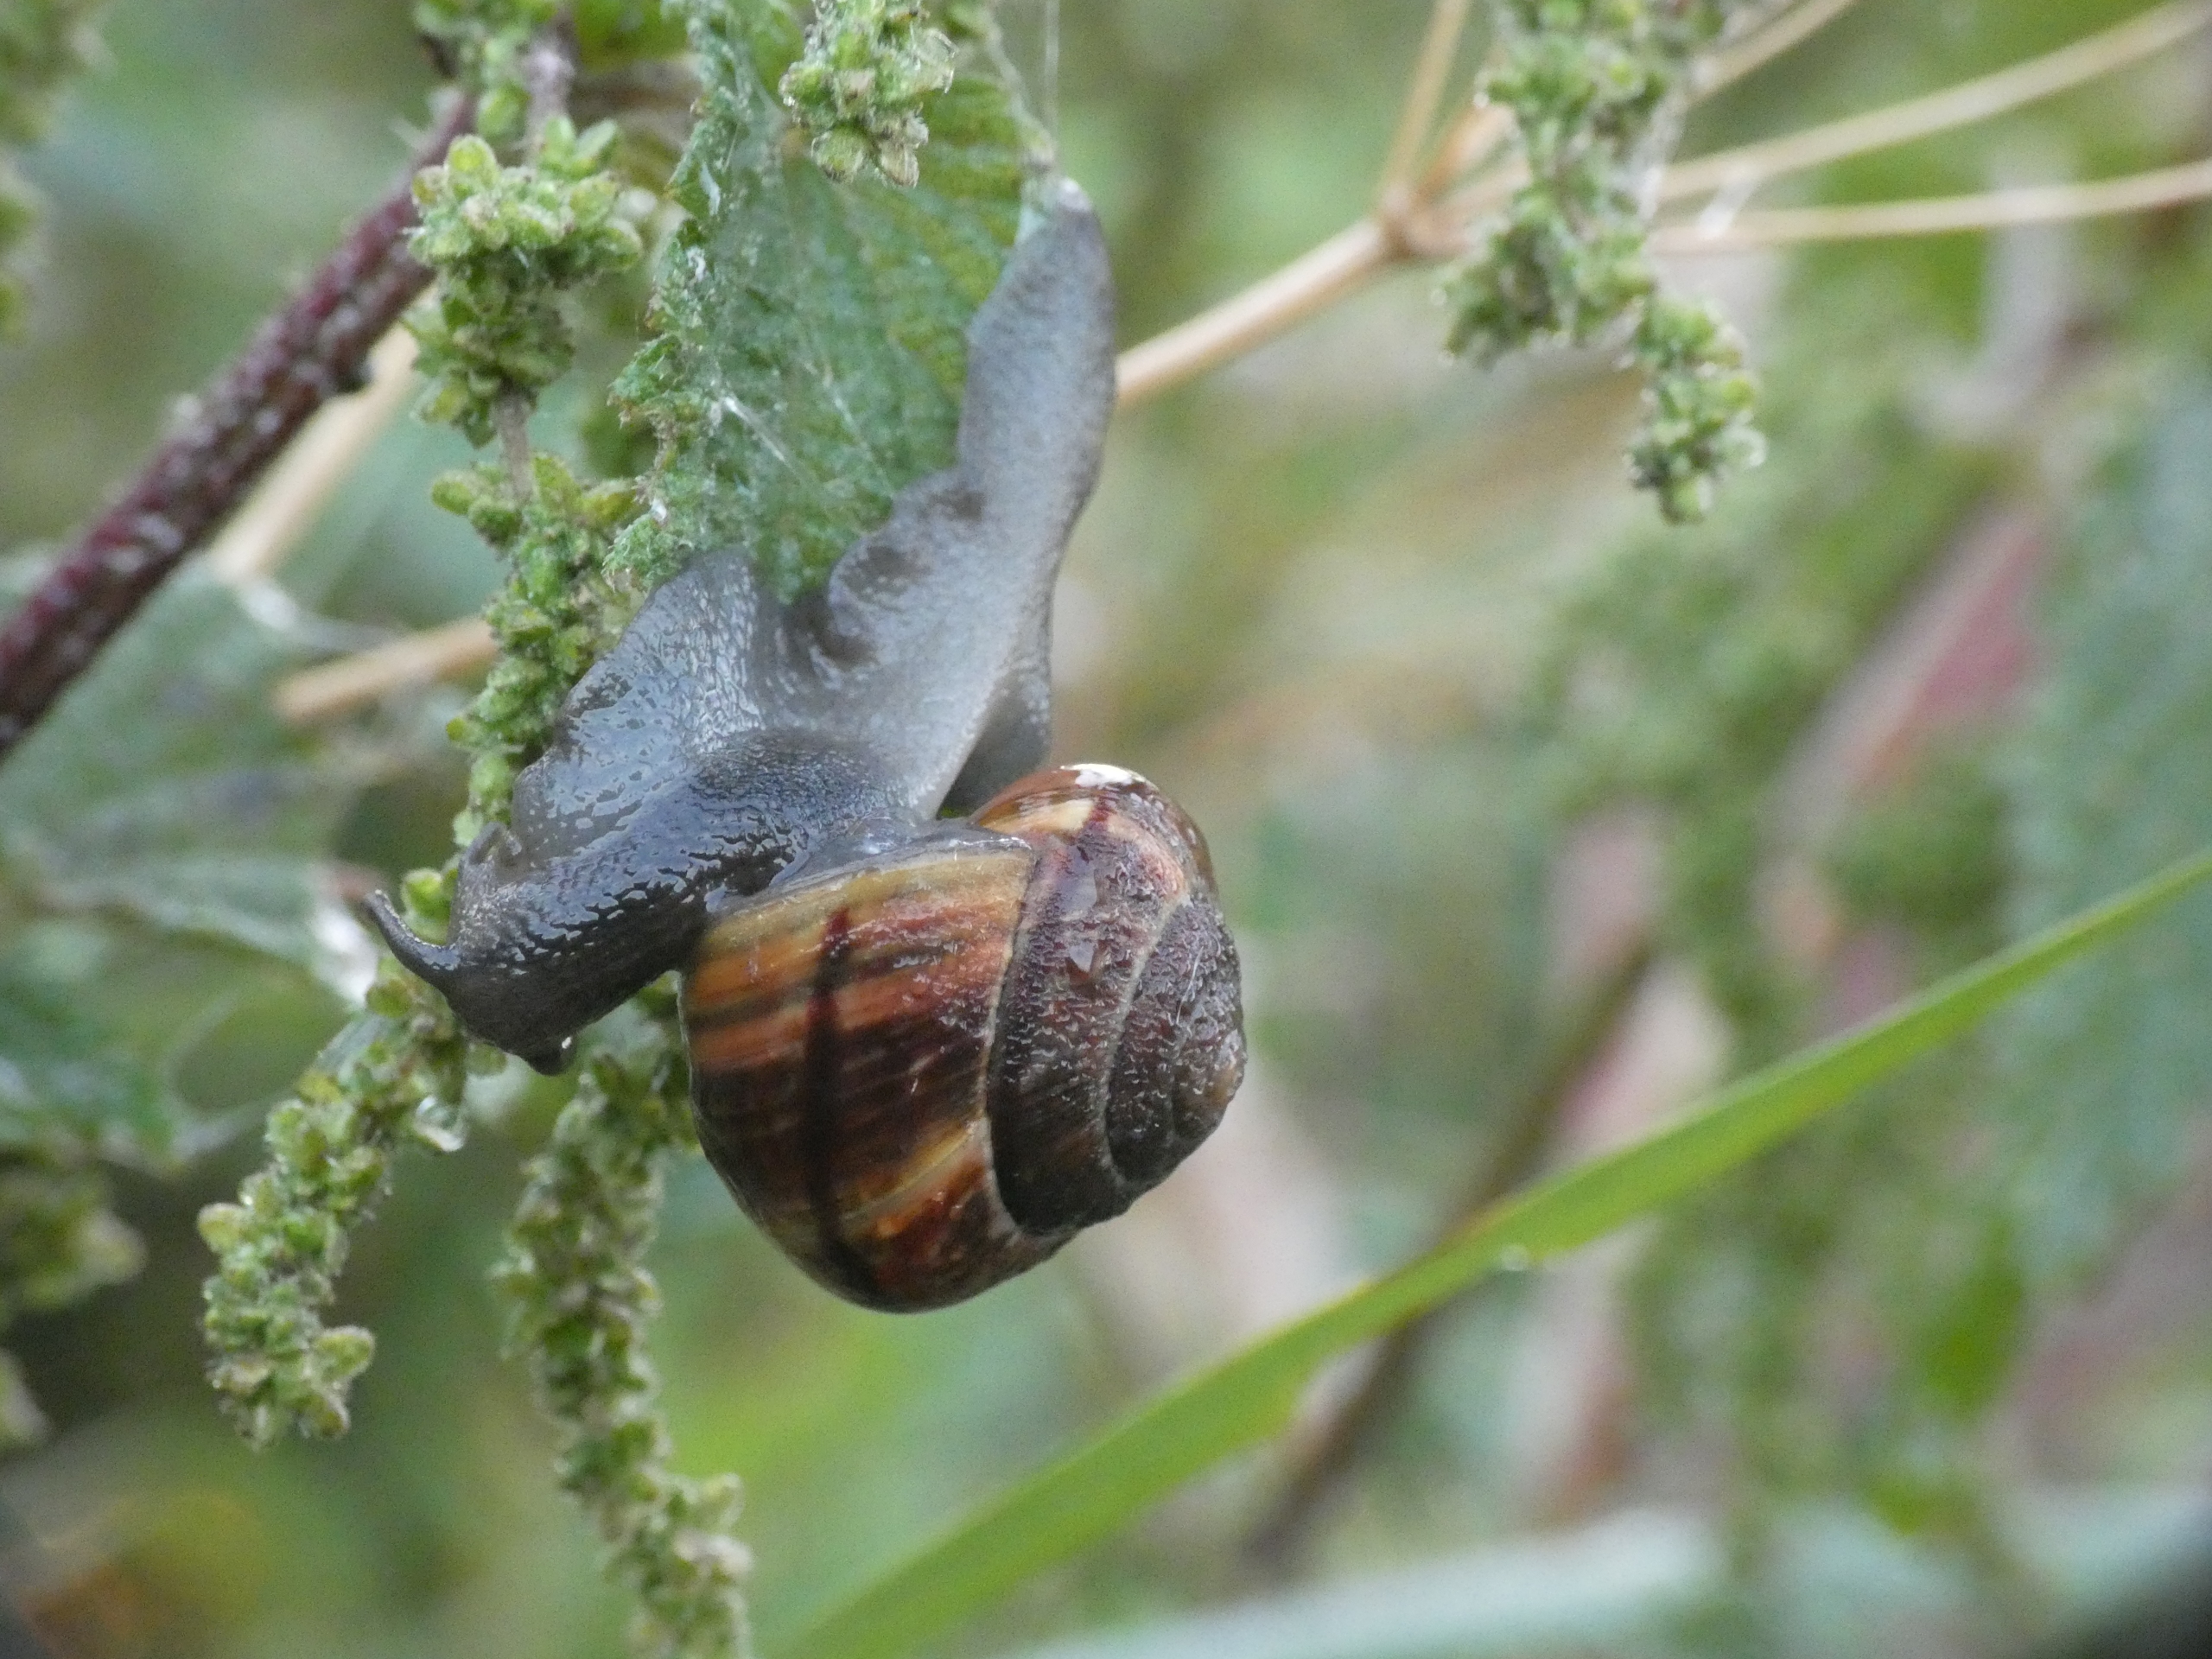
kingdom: Animalia
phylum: Mollusca
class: Gastropoda
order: Stylommatophora
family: Helicidae
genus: Arianta
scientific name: Arianta arbustorum
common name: Kratsnegl
